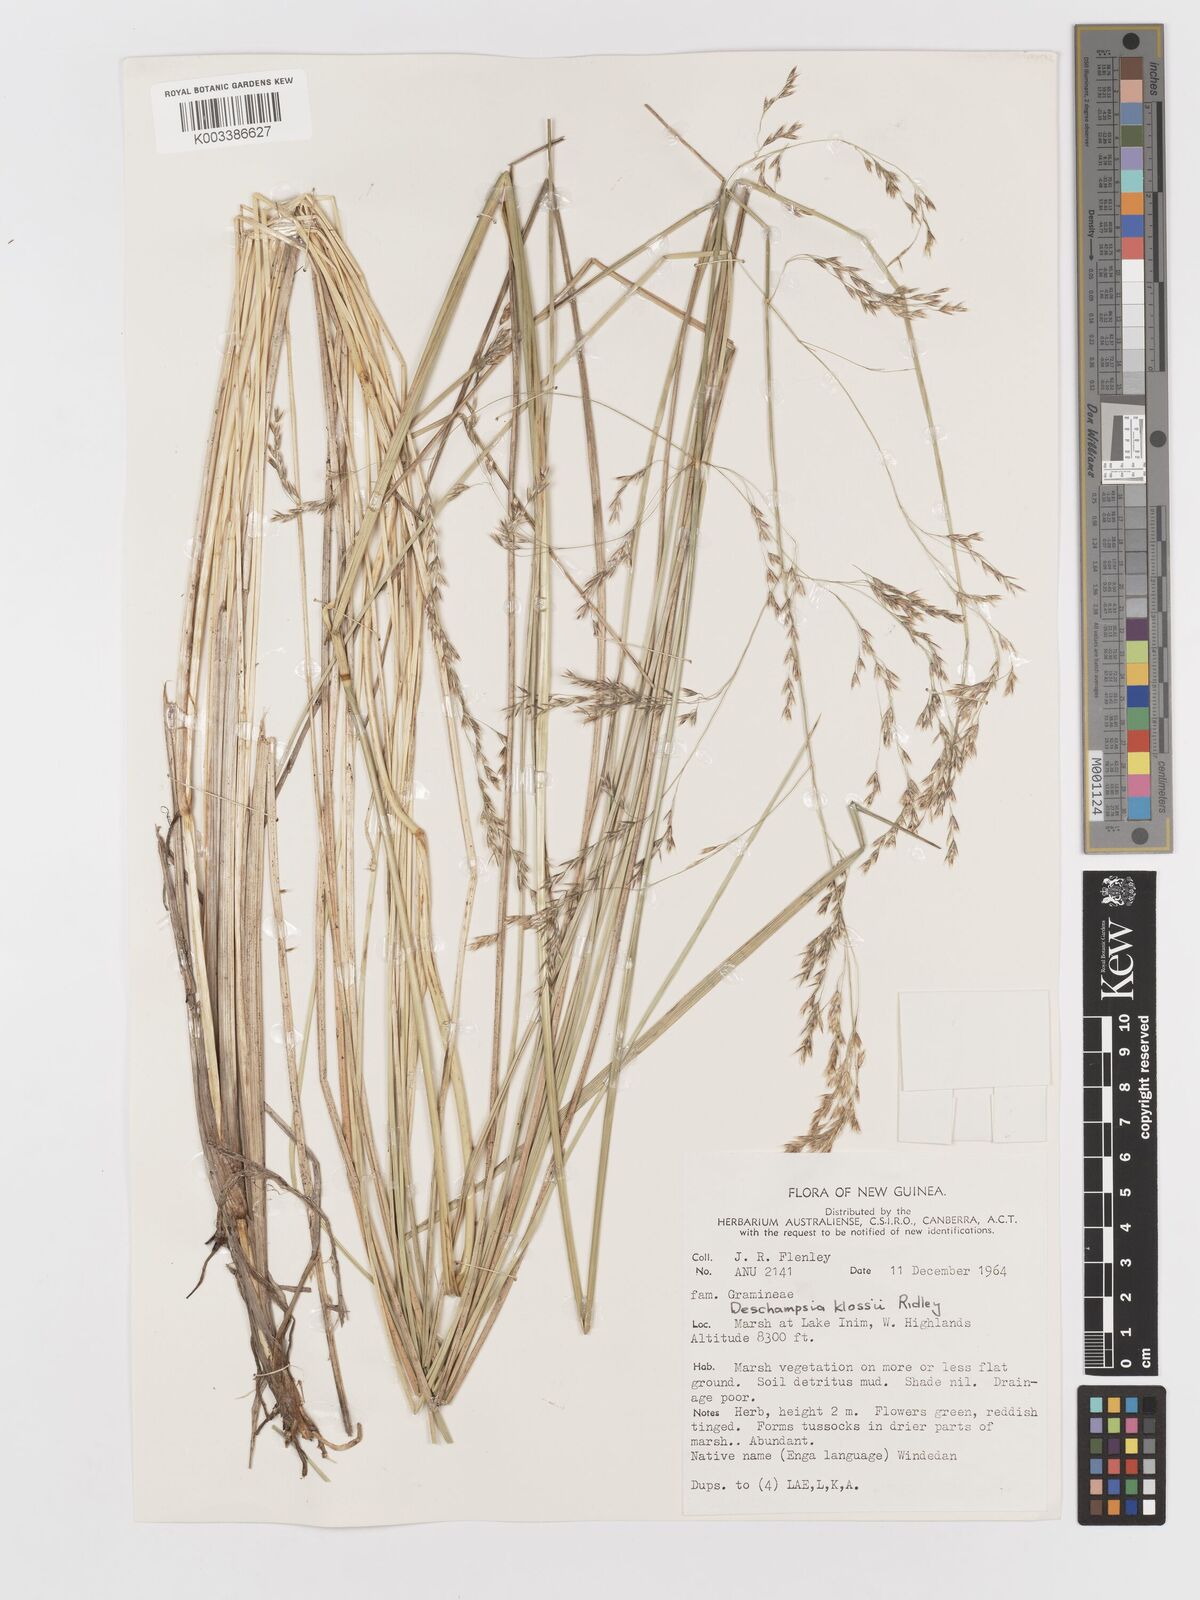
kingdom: Plantae
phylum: Tracheophyta
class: Liliopsida
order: Poales
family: Poaceae
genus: Deschampsia
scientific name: Deschampsia klossii
